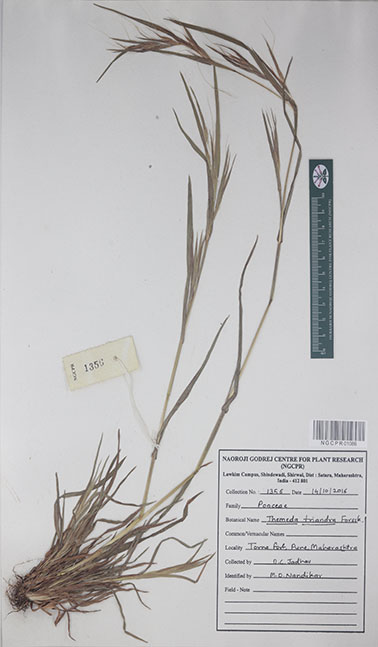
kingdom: Plantae
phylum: Tracheophyta
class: Liliopsida
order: Poales
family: Poaceae
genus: Themeda
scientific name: Themeda triandra
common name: Kangaroo grass
